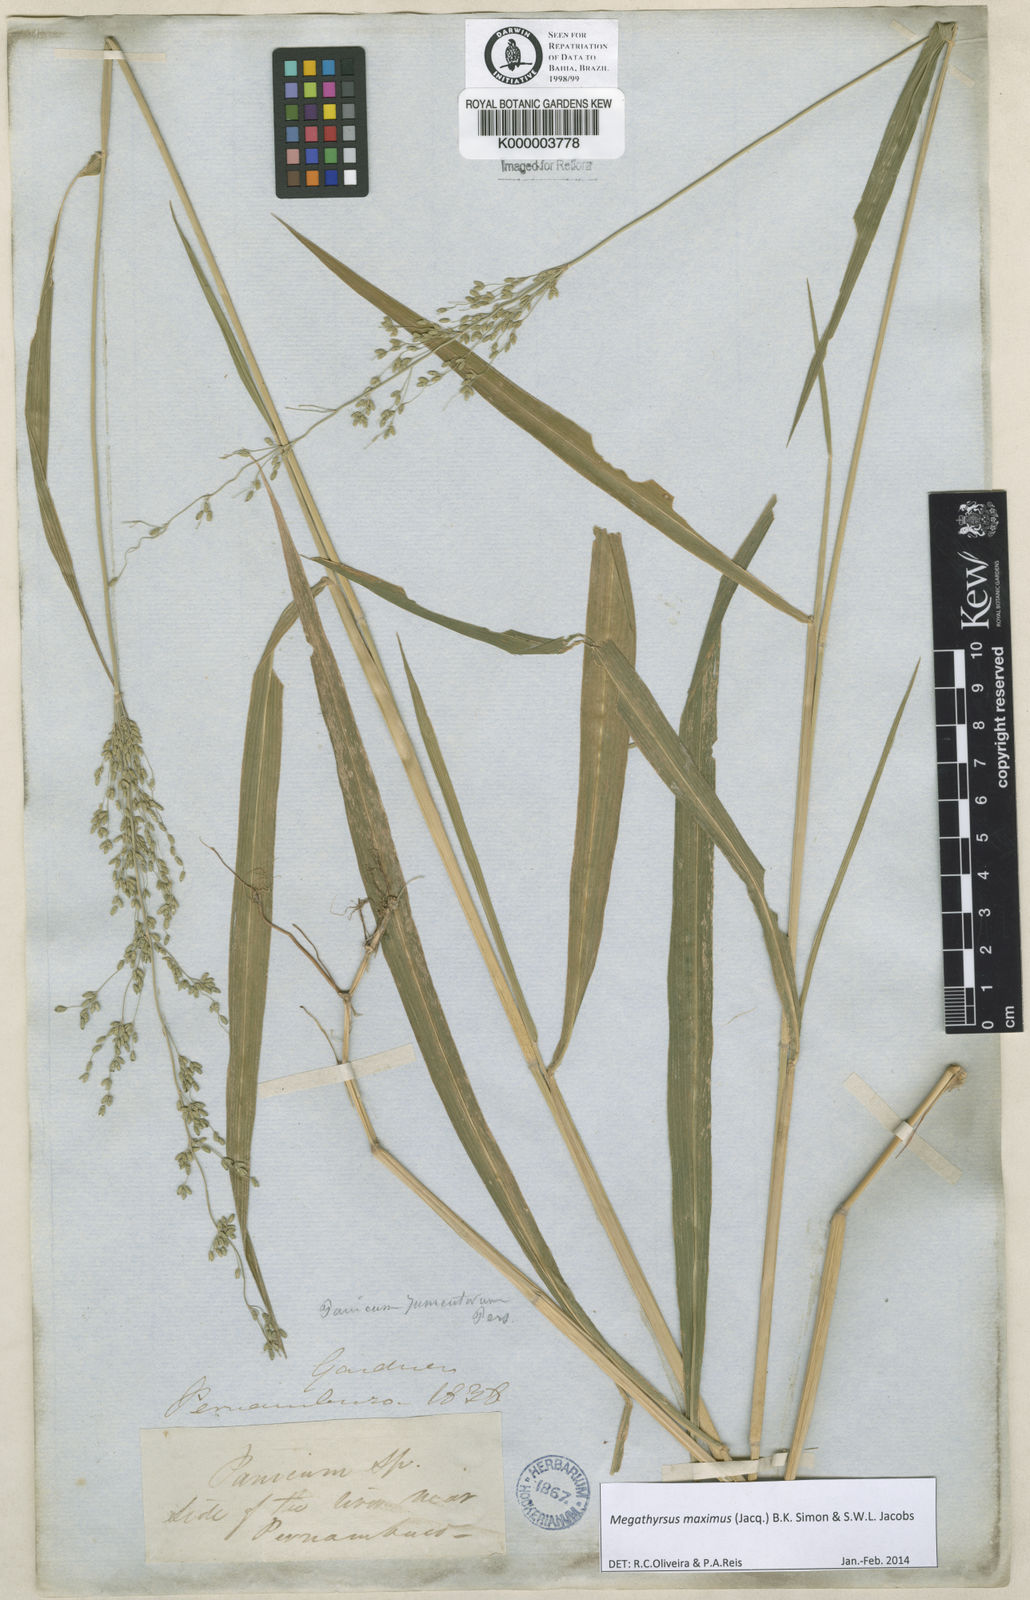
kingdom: Plantae
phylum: Tracheophyta
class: Liliopsida
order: Poales
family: Poaceae
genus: Megathyrsus
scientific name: Megathyrsus maximus
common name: Guineagrass
